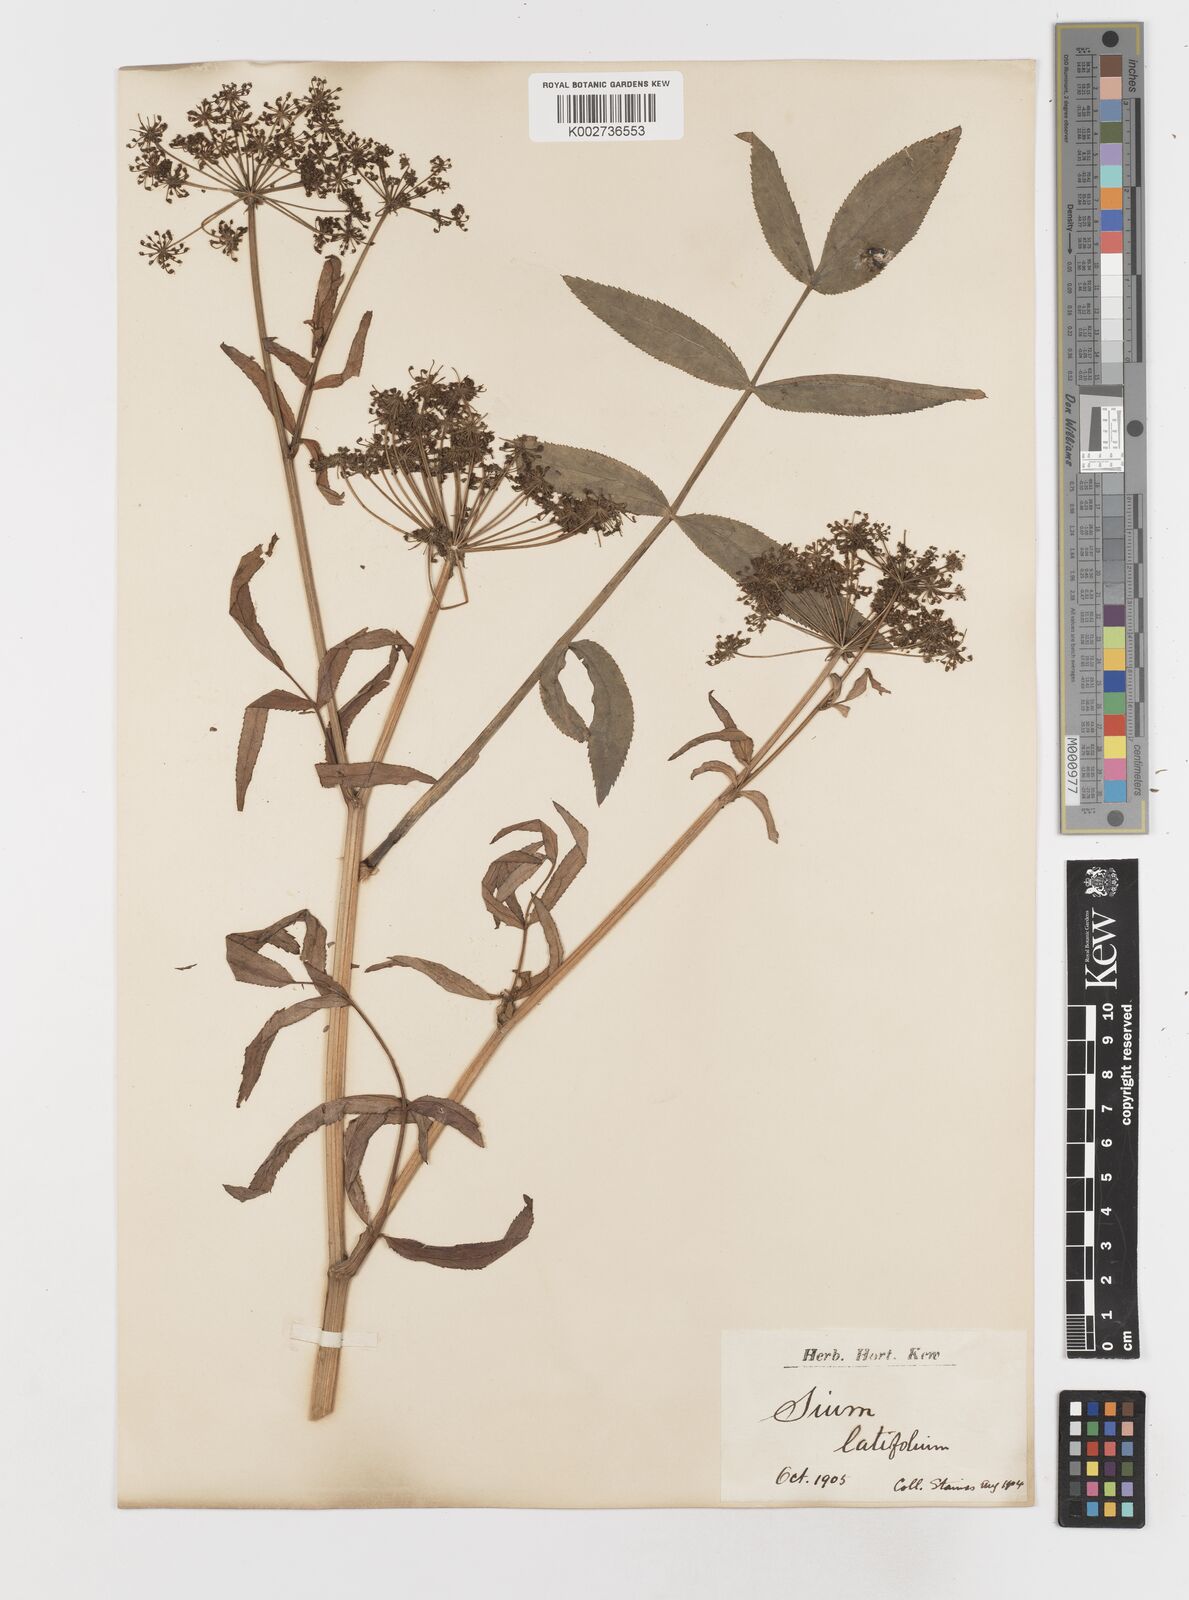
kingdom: Plantae
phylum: Tracheophyta
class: Magnoliopsida
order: Apiales
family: Apiaceae
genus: Sium
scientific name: Sium latifolium
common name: Greater water-parsnip
